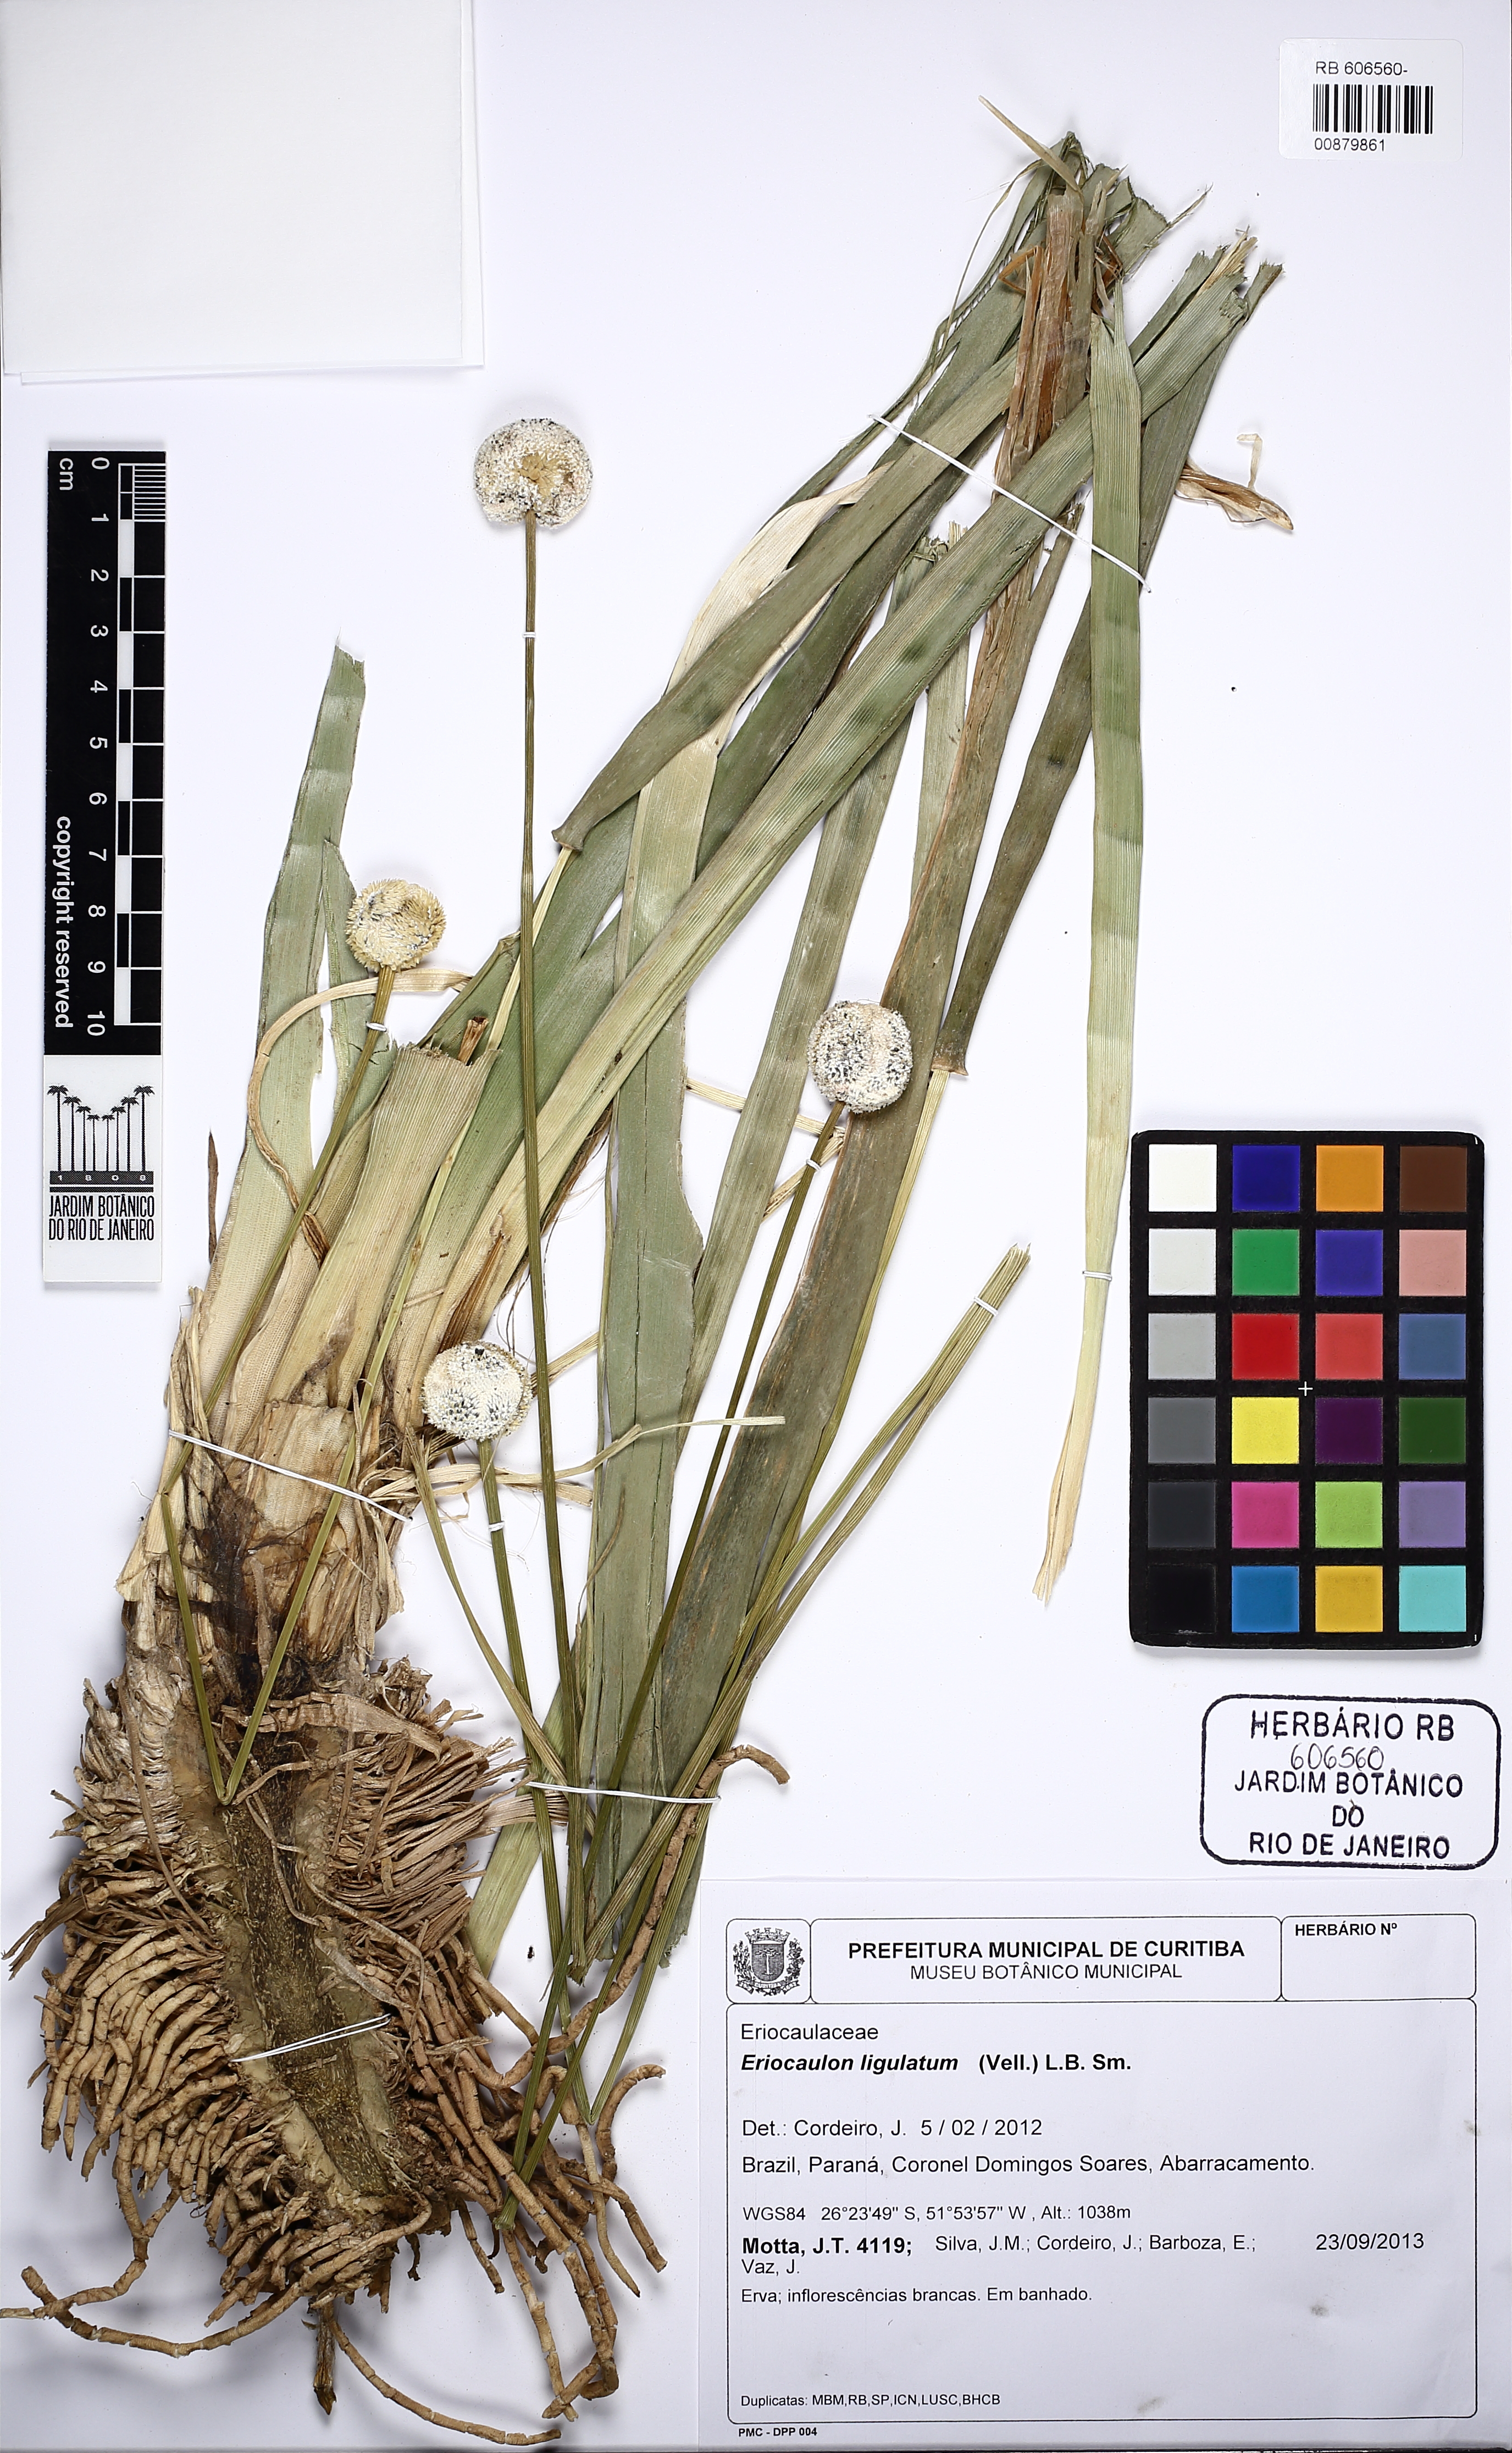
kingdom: Plantae
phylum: Tracheophyta
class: Liliopsida
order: Poales
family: Eriocaulaceae
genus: Eriocaulon
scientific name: Eriocaulon arechavaletae
